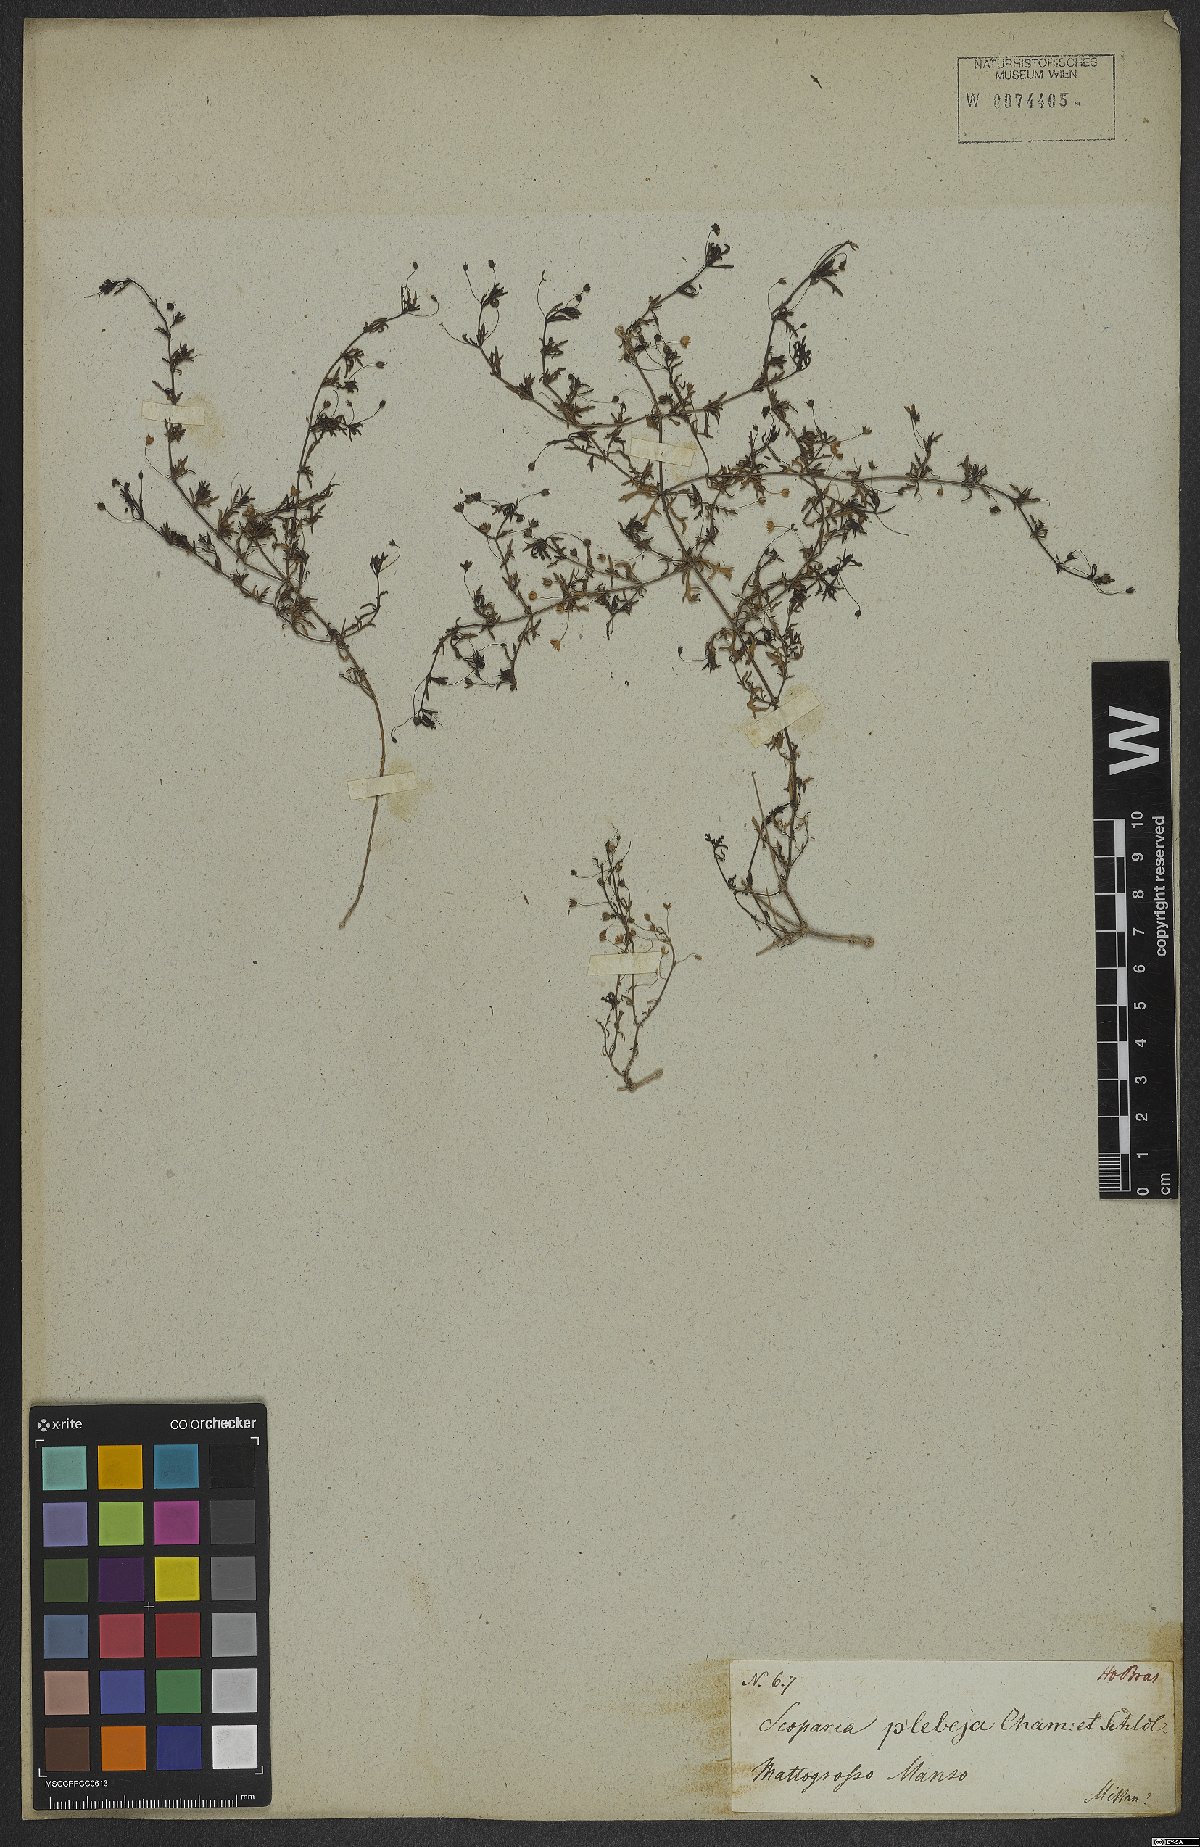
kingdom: Plantae
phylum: Tracheophyta
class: Magnoliopsida
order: Lamiales
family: Plantaginaceae
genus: Scoparia
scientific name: Scoparia ericacea
